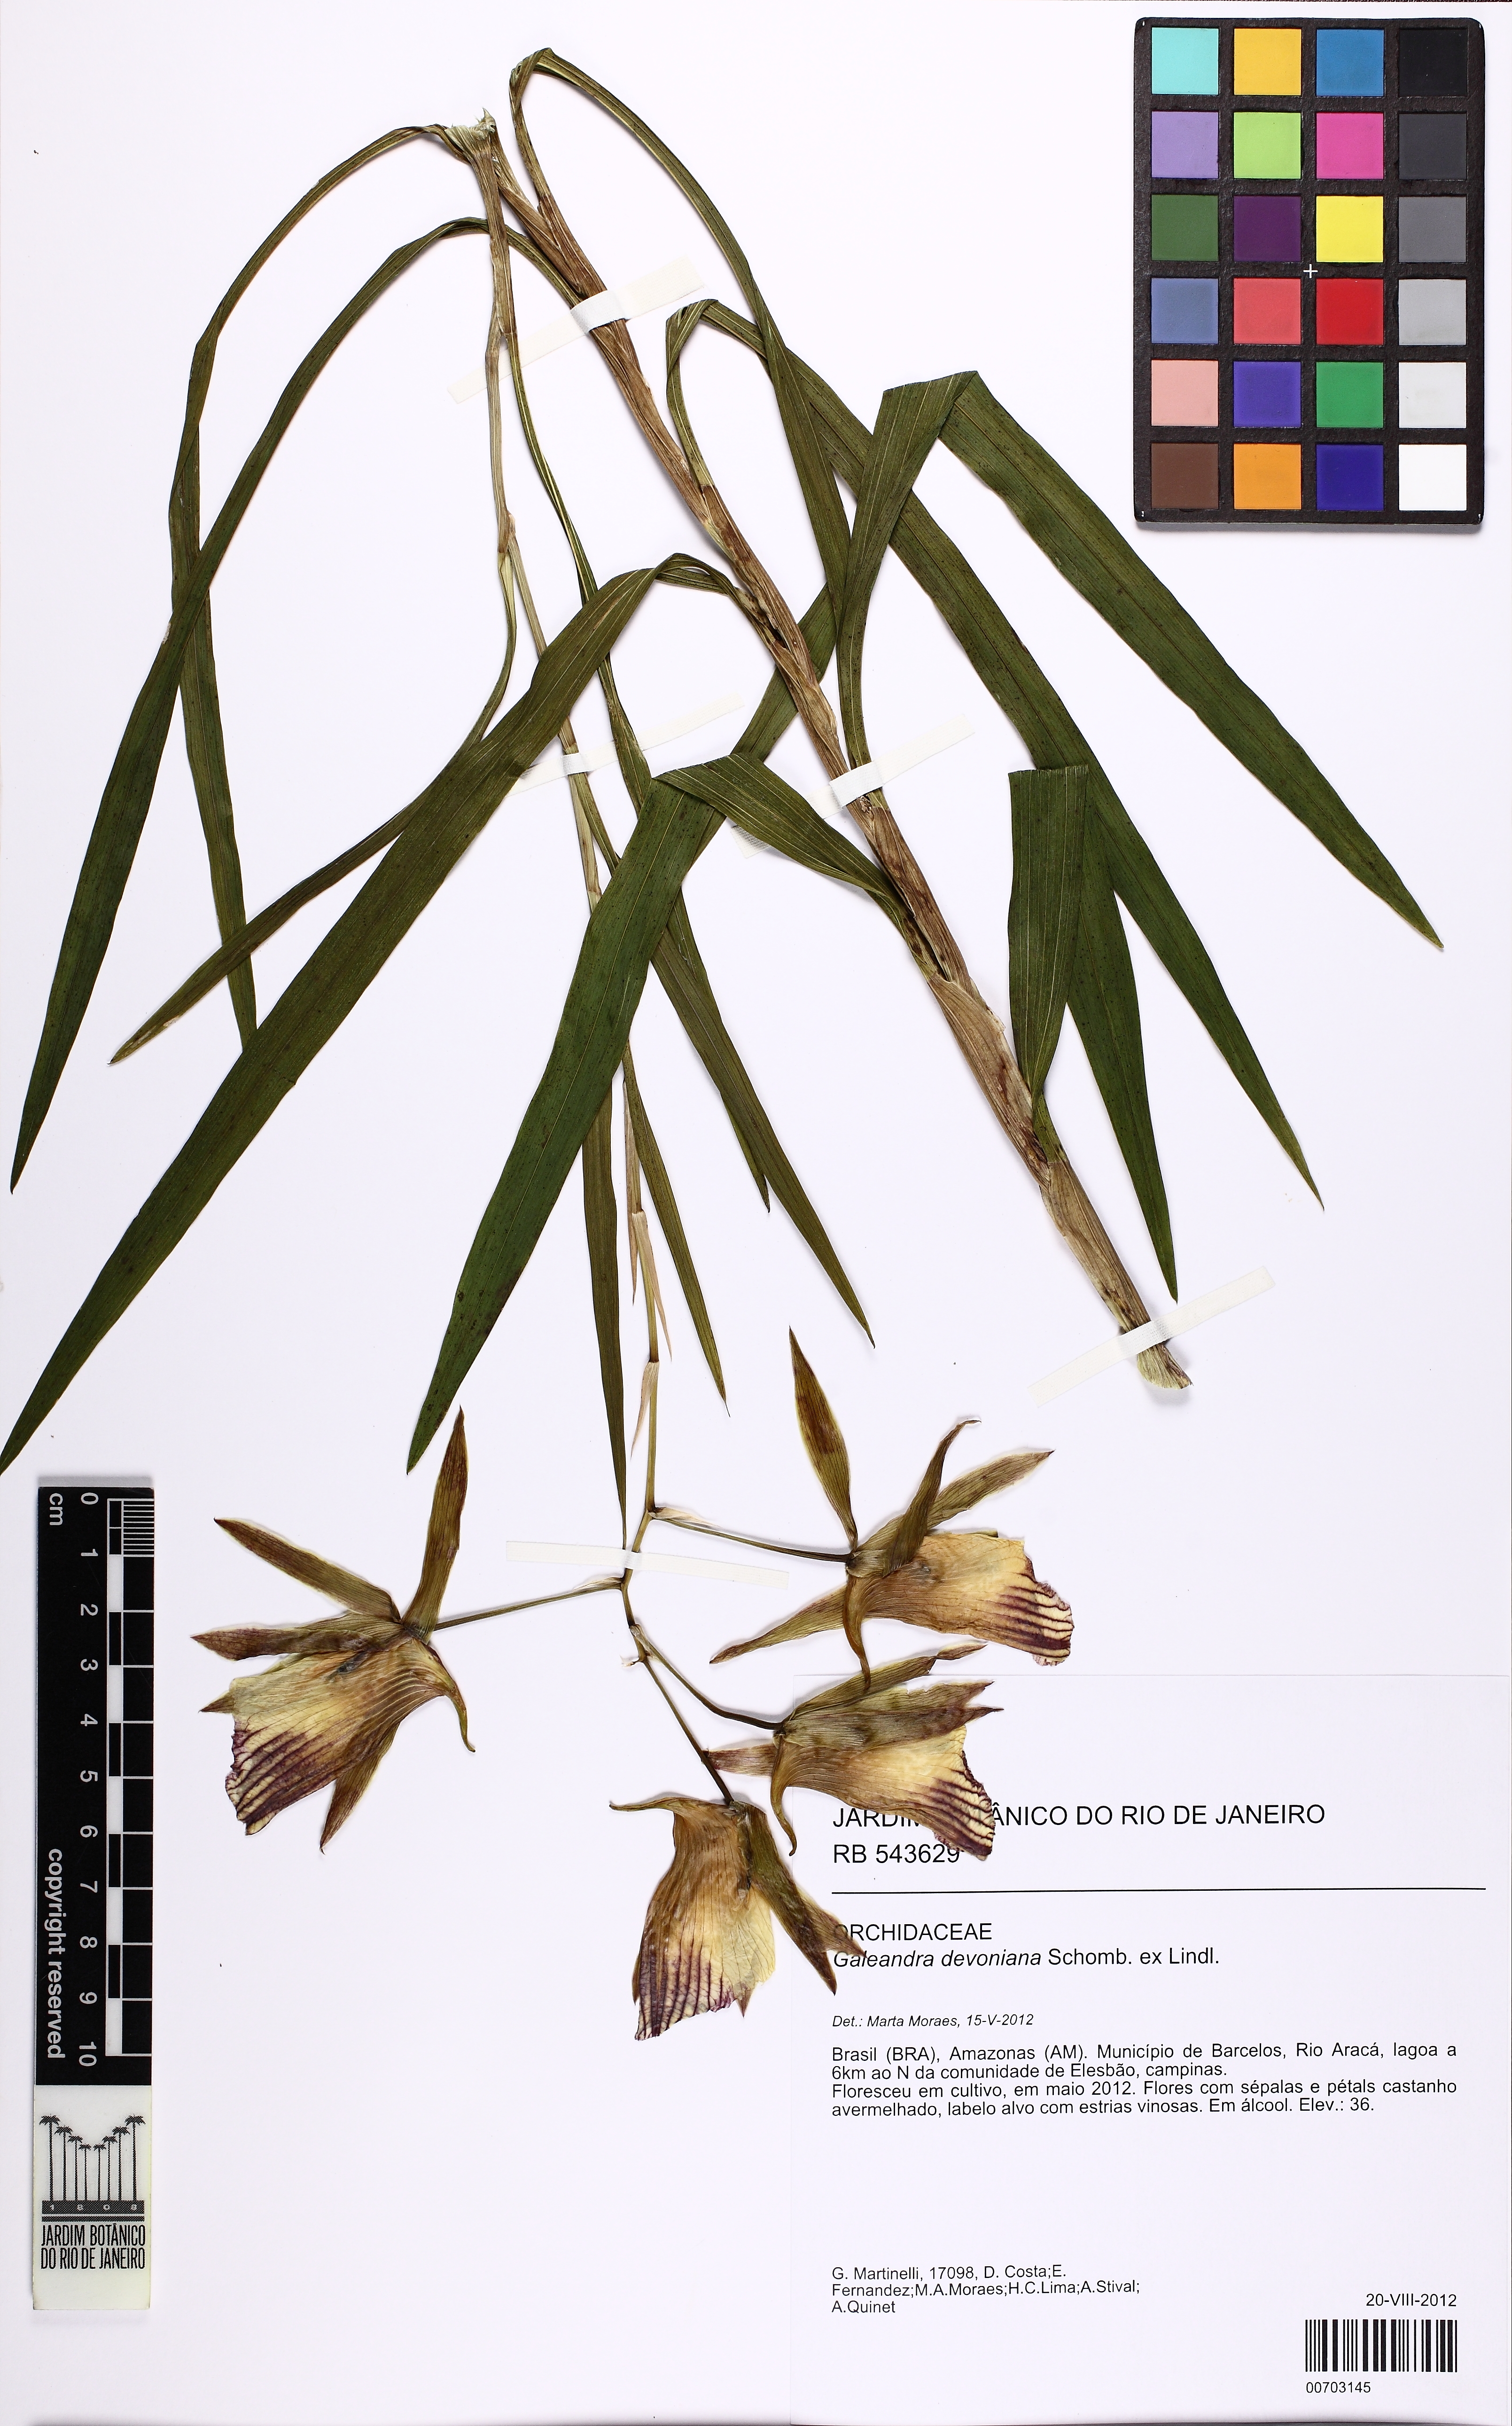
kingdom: Plantae
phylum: Tracheophyta
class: Liliopsida
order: Asparagales
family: Orchidaceae
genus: Galeandra
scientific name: Galeandra devoniana
